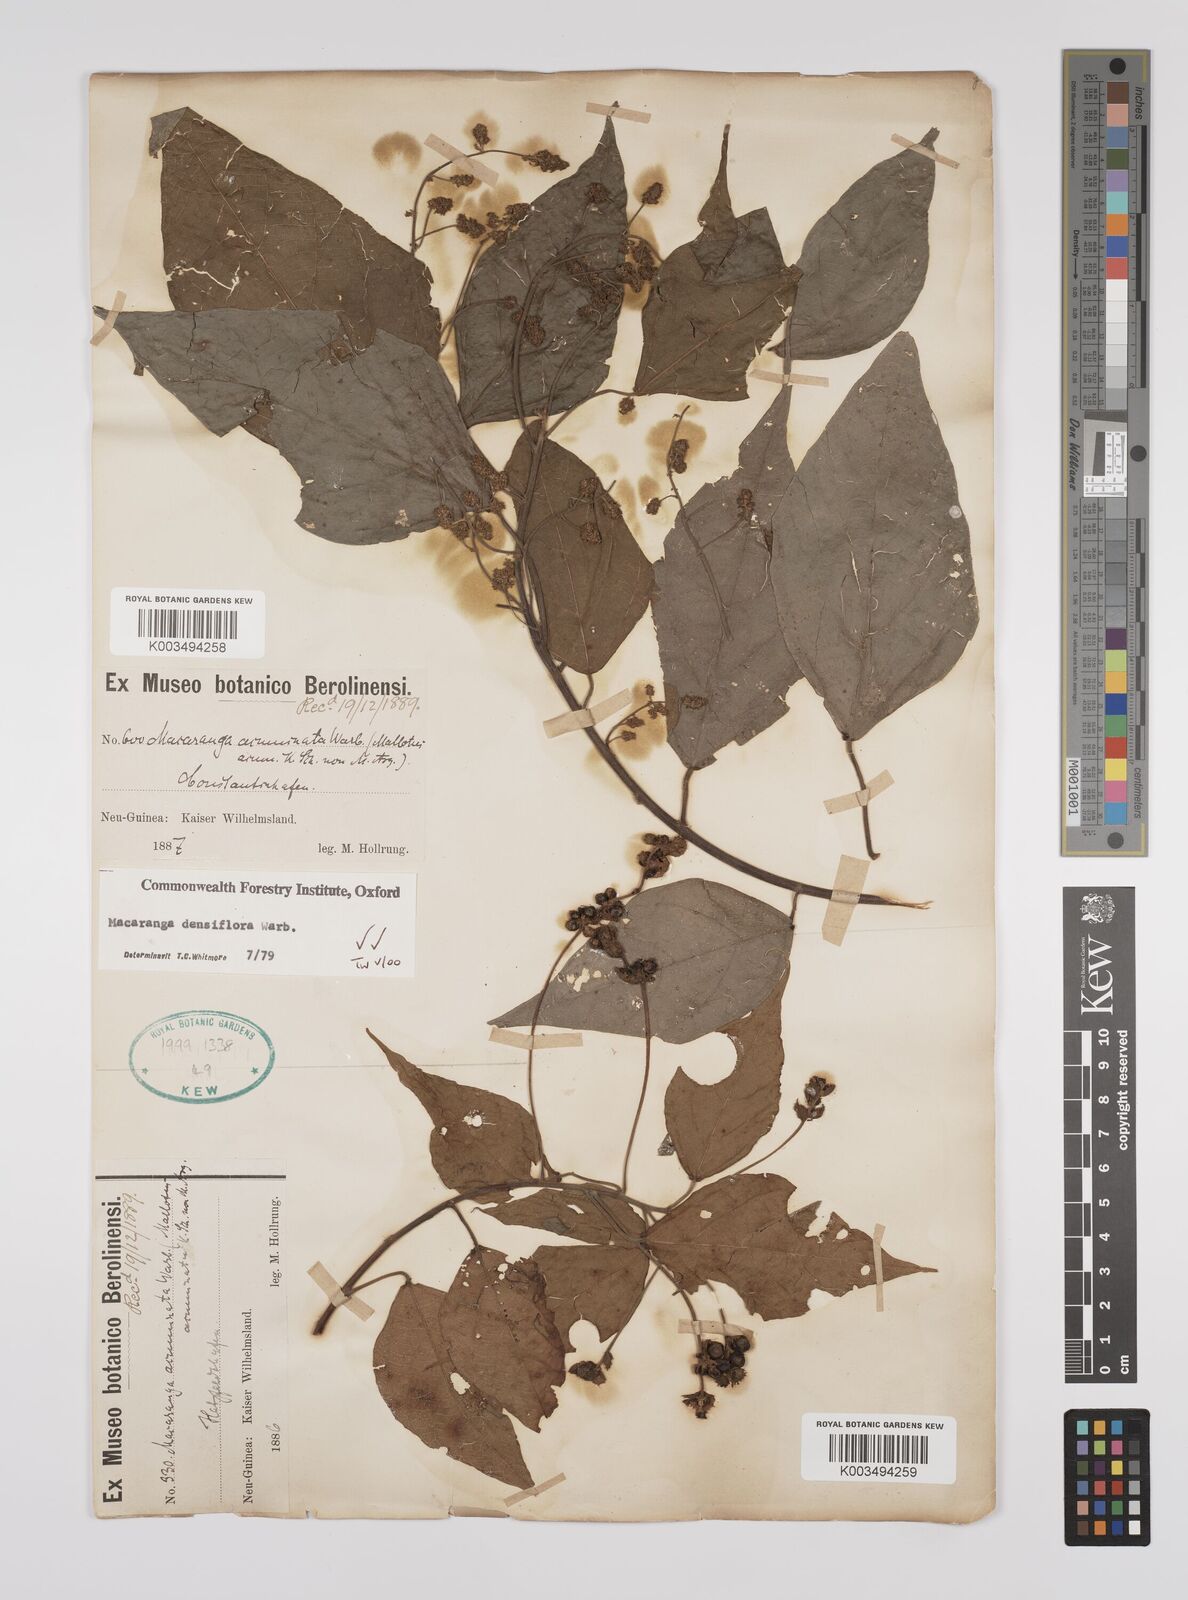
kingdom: Plantae
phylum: Tracheophyta
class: Magnoliopsida
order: Malpighiales
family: Euphorbiaceae
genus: Macaranga
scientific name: Macaranga densiflora
